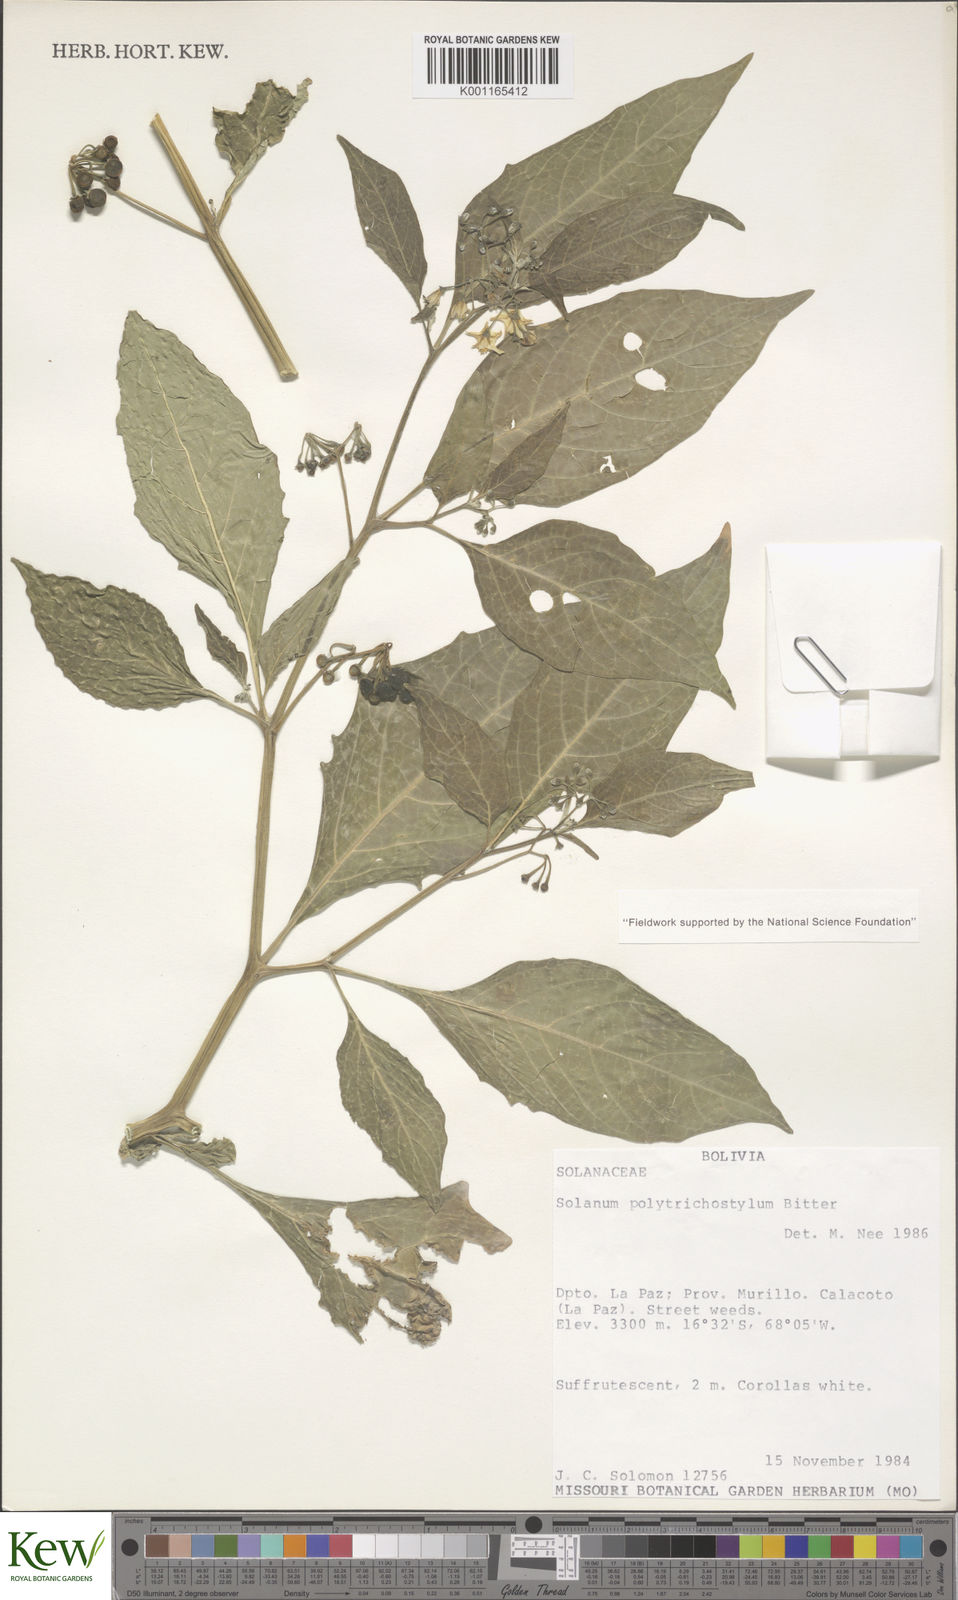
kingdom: Plantae
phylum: Tracheophyta
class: Magnoliopsida
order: Solanales
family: Solanaceae
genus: Solanum
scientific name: Solanum polytrichostylum
